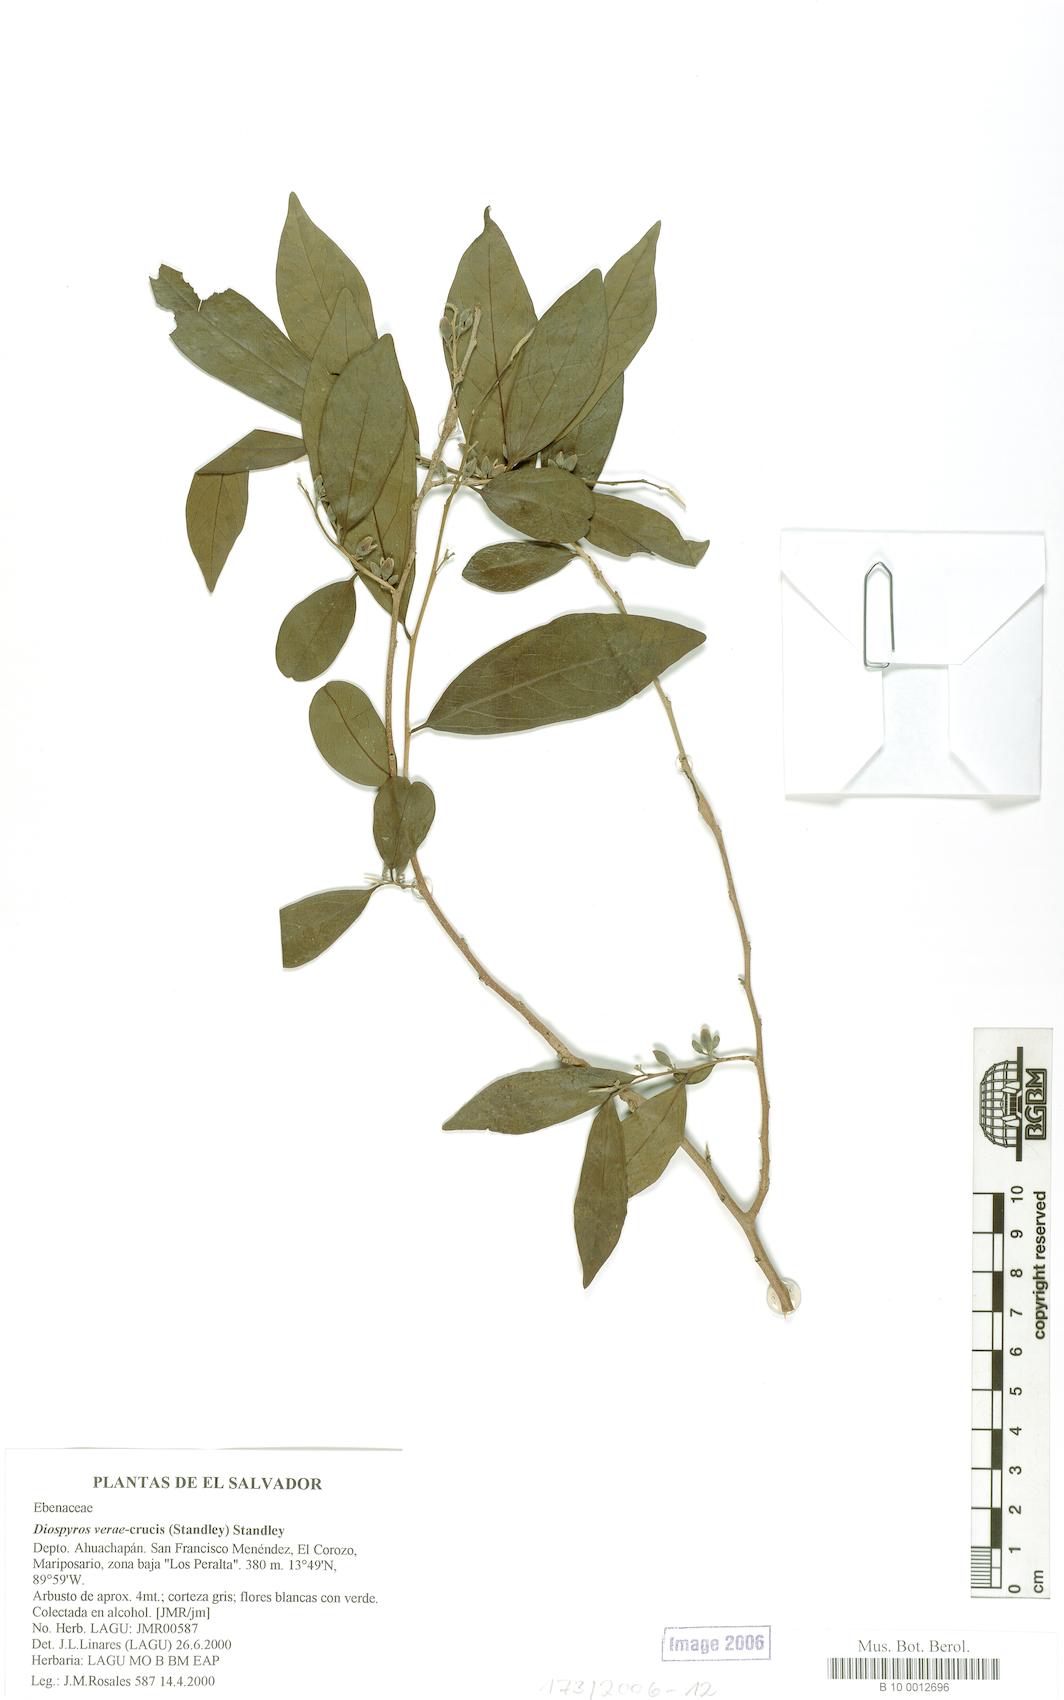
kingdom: Plantae
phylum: Tracheophyta
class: Magnoliopsida
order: Ericales
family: Ebenaceae
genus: Diospyros
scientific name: Diospyros salicifolia
